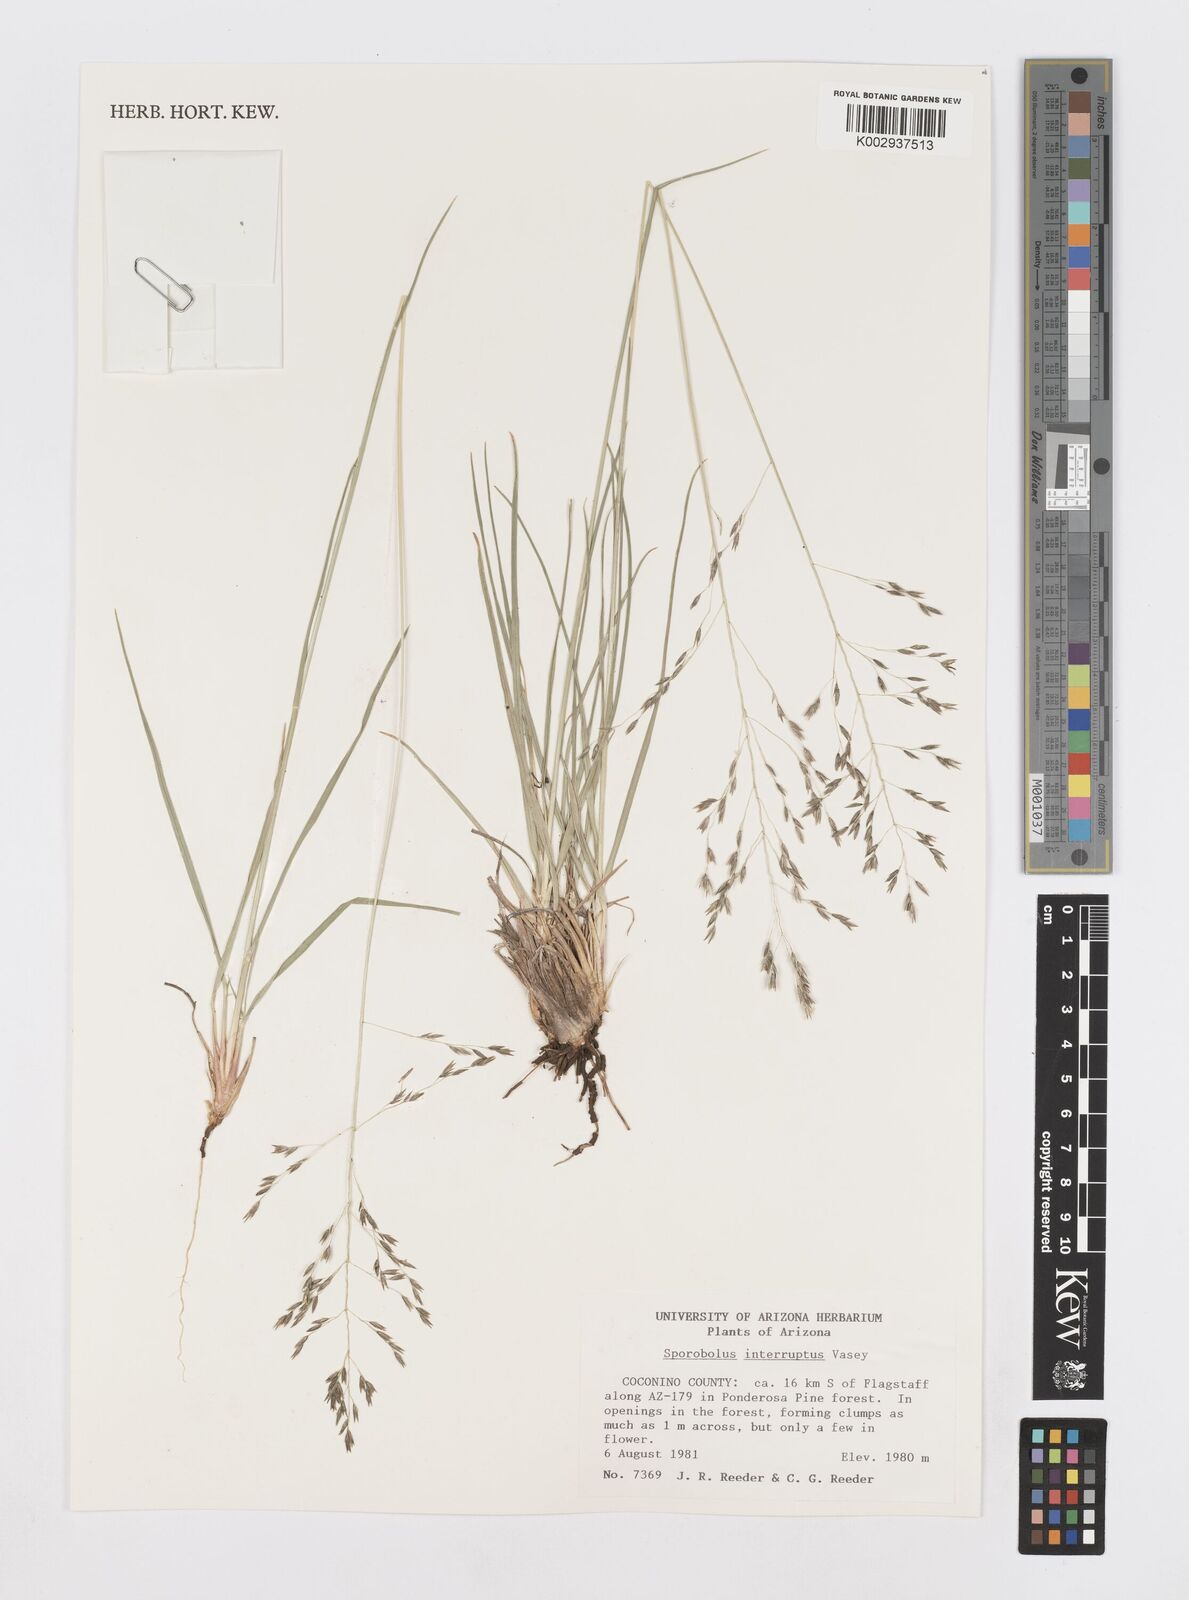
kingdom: Plantae
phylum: Tracheophyta
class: Liliopsida
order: Poales
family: Poaceae
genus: Sporobolus
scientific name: Sporobolus interruptus
